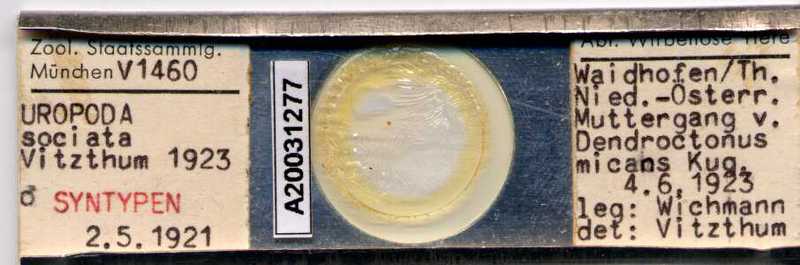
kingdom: Animalia
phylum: Arthropoda
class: Arachnida
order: Mesostigmata
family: Trematuridae
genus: Trichouropoda
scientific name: Trichouropoda sociata
